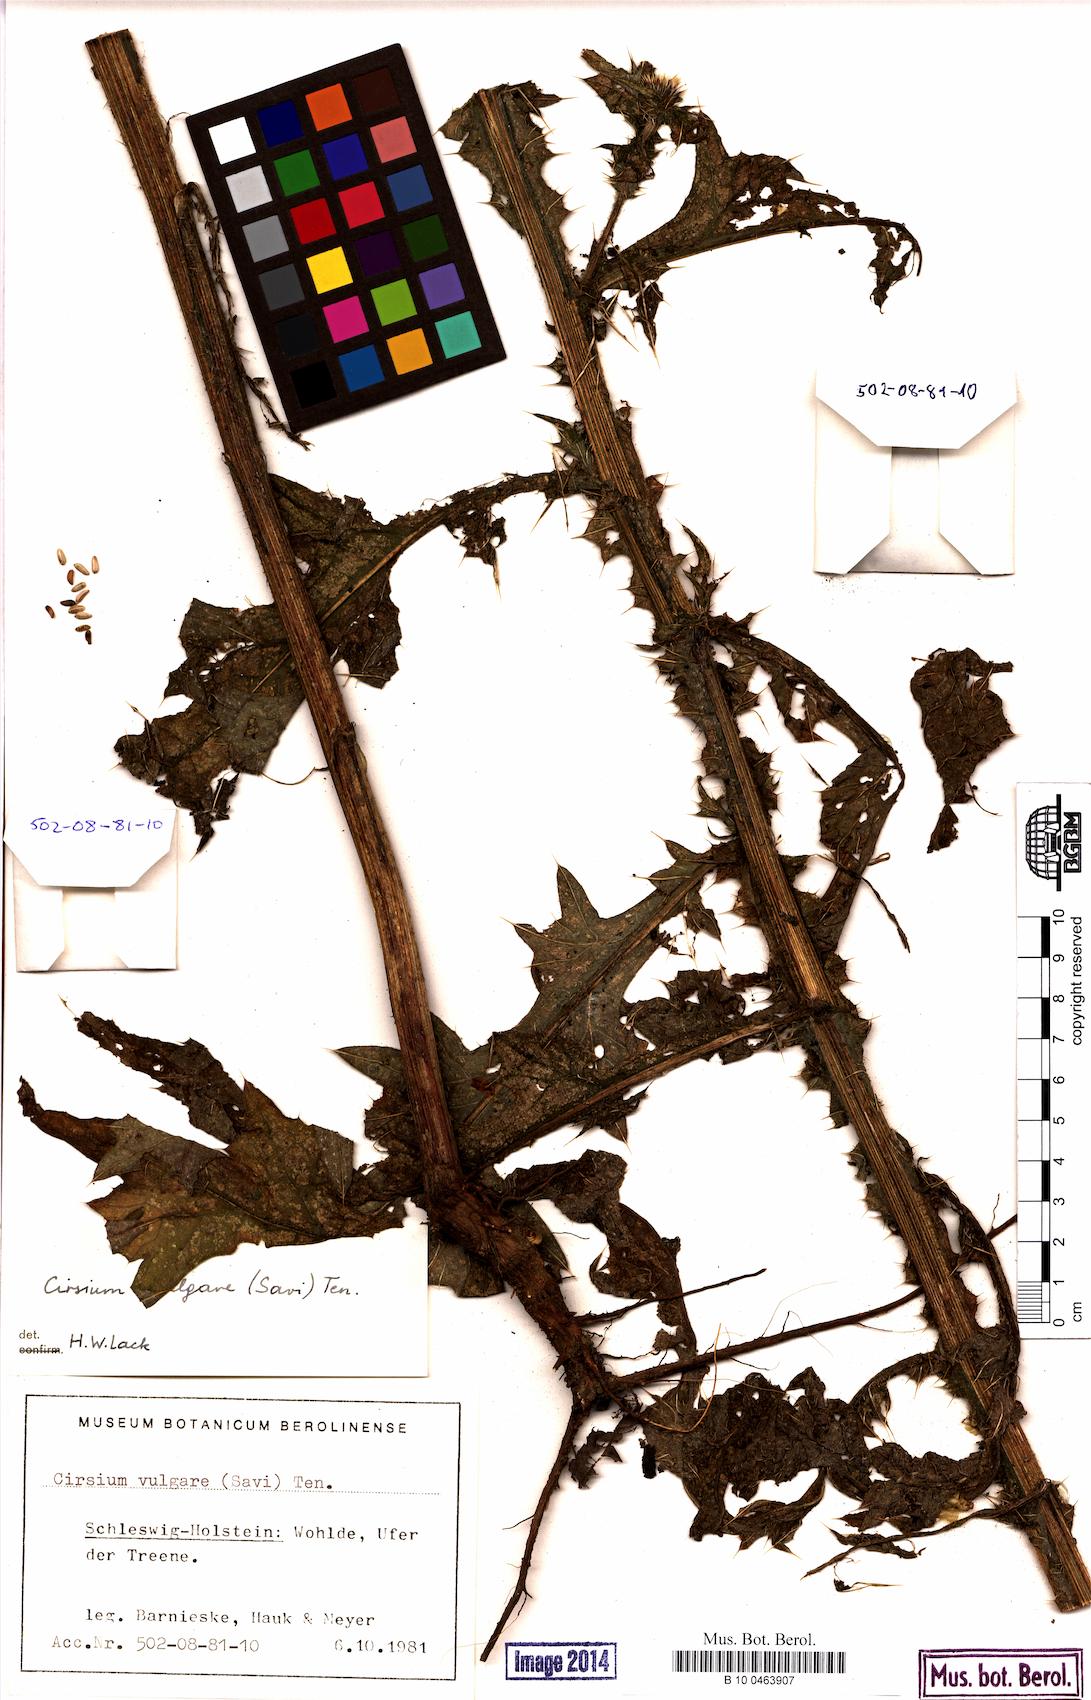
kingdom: Plantae
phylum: Tracheophyta
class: Magnoliopsida
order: Asterales
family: Asteraceae
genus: Cirsium
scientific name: Cirsium vulgare
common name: Bull thistle
